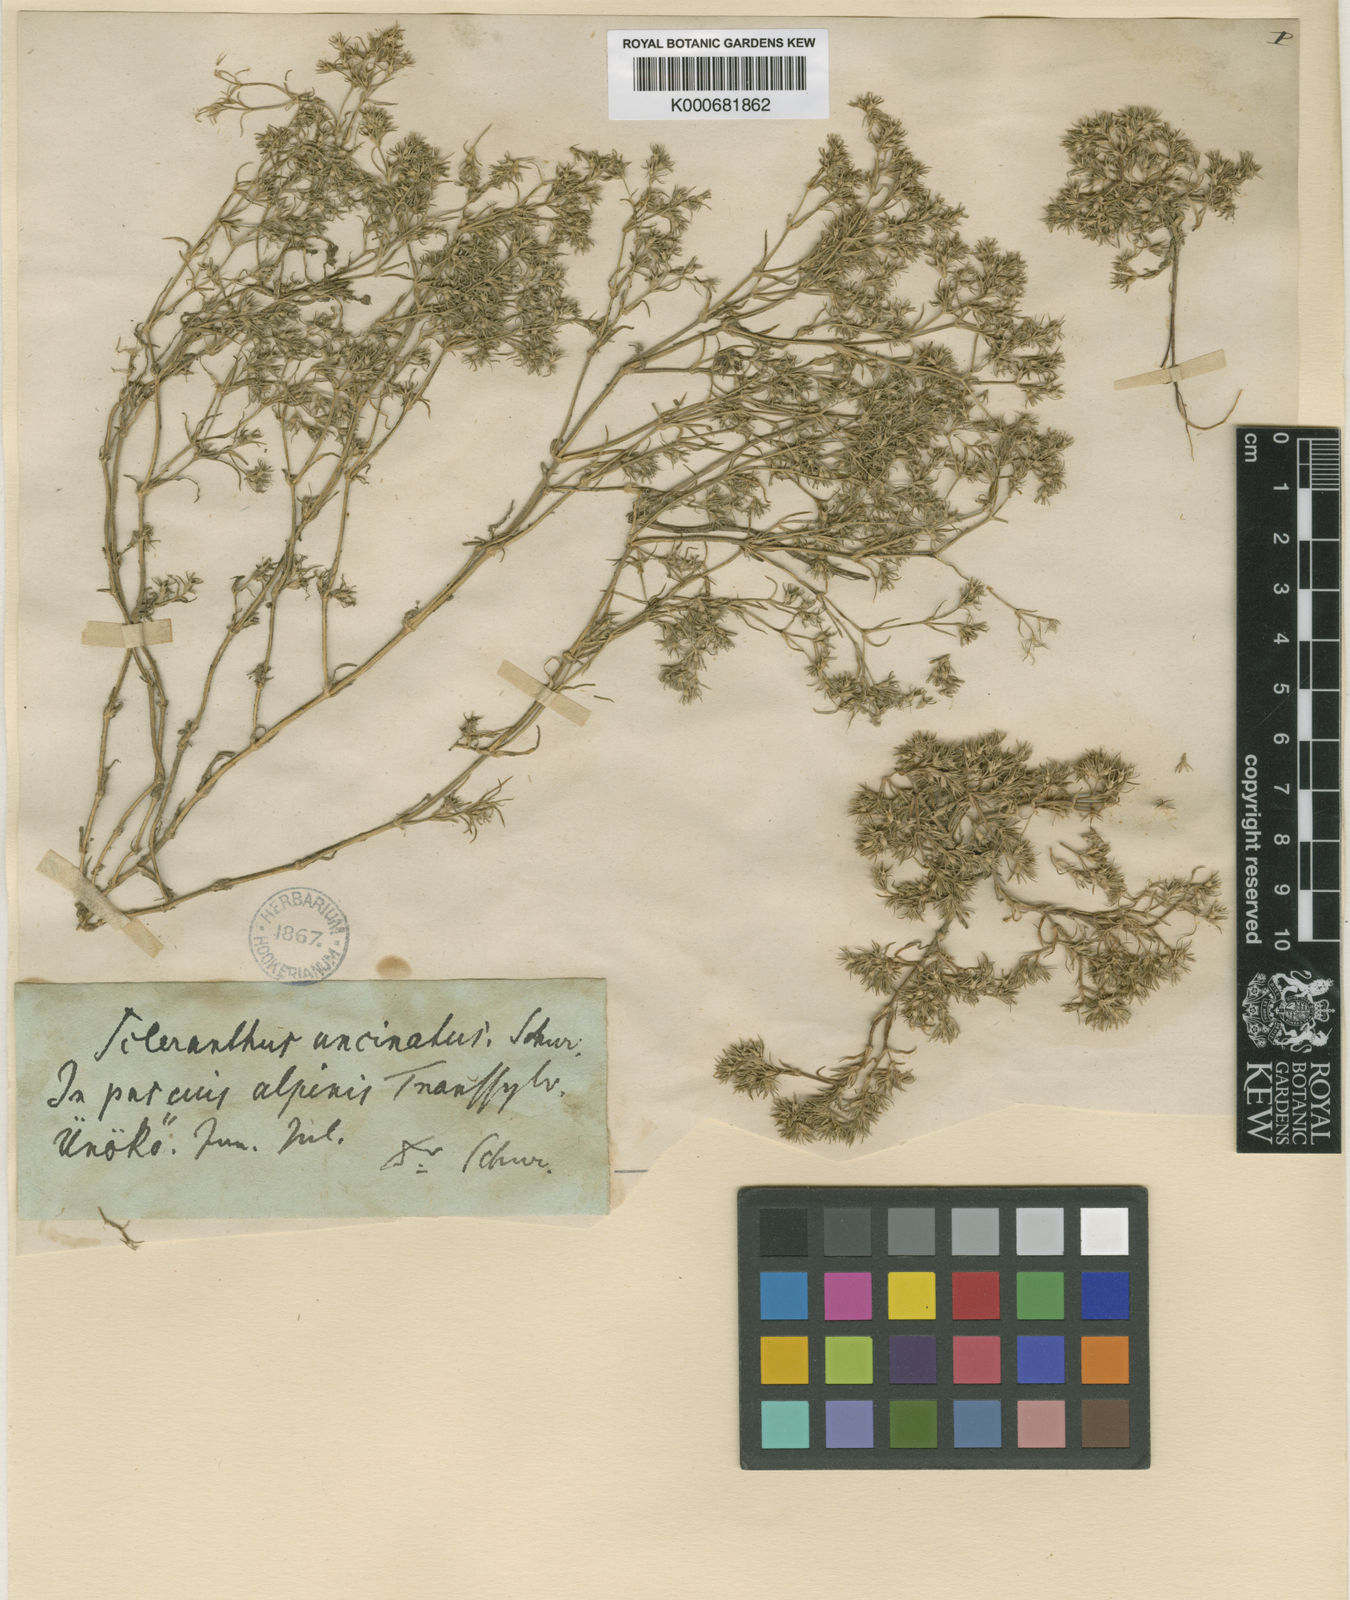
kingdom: Plantae
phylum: Tracheophyta
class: Magnoliopsida
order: Caryophyllales
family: Caryophyllaceae
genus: Scleranthus
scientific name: Scleranthus uncinatus
